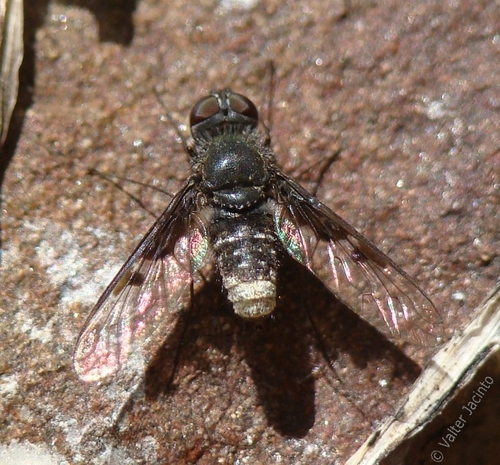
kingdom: Animalia
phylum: Arthropoda
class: Insecta
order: Diptera
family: Bombyliidae
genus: Anthrax
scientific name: Anthrax
